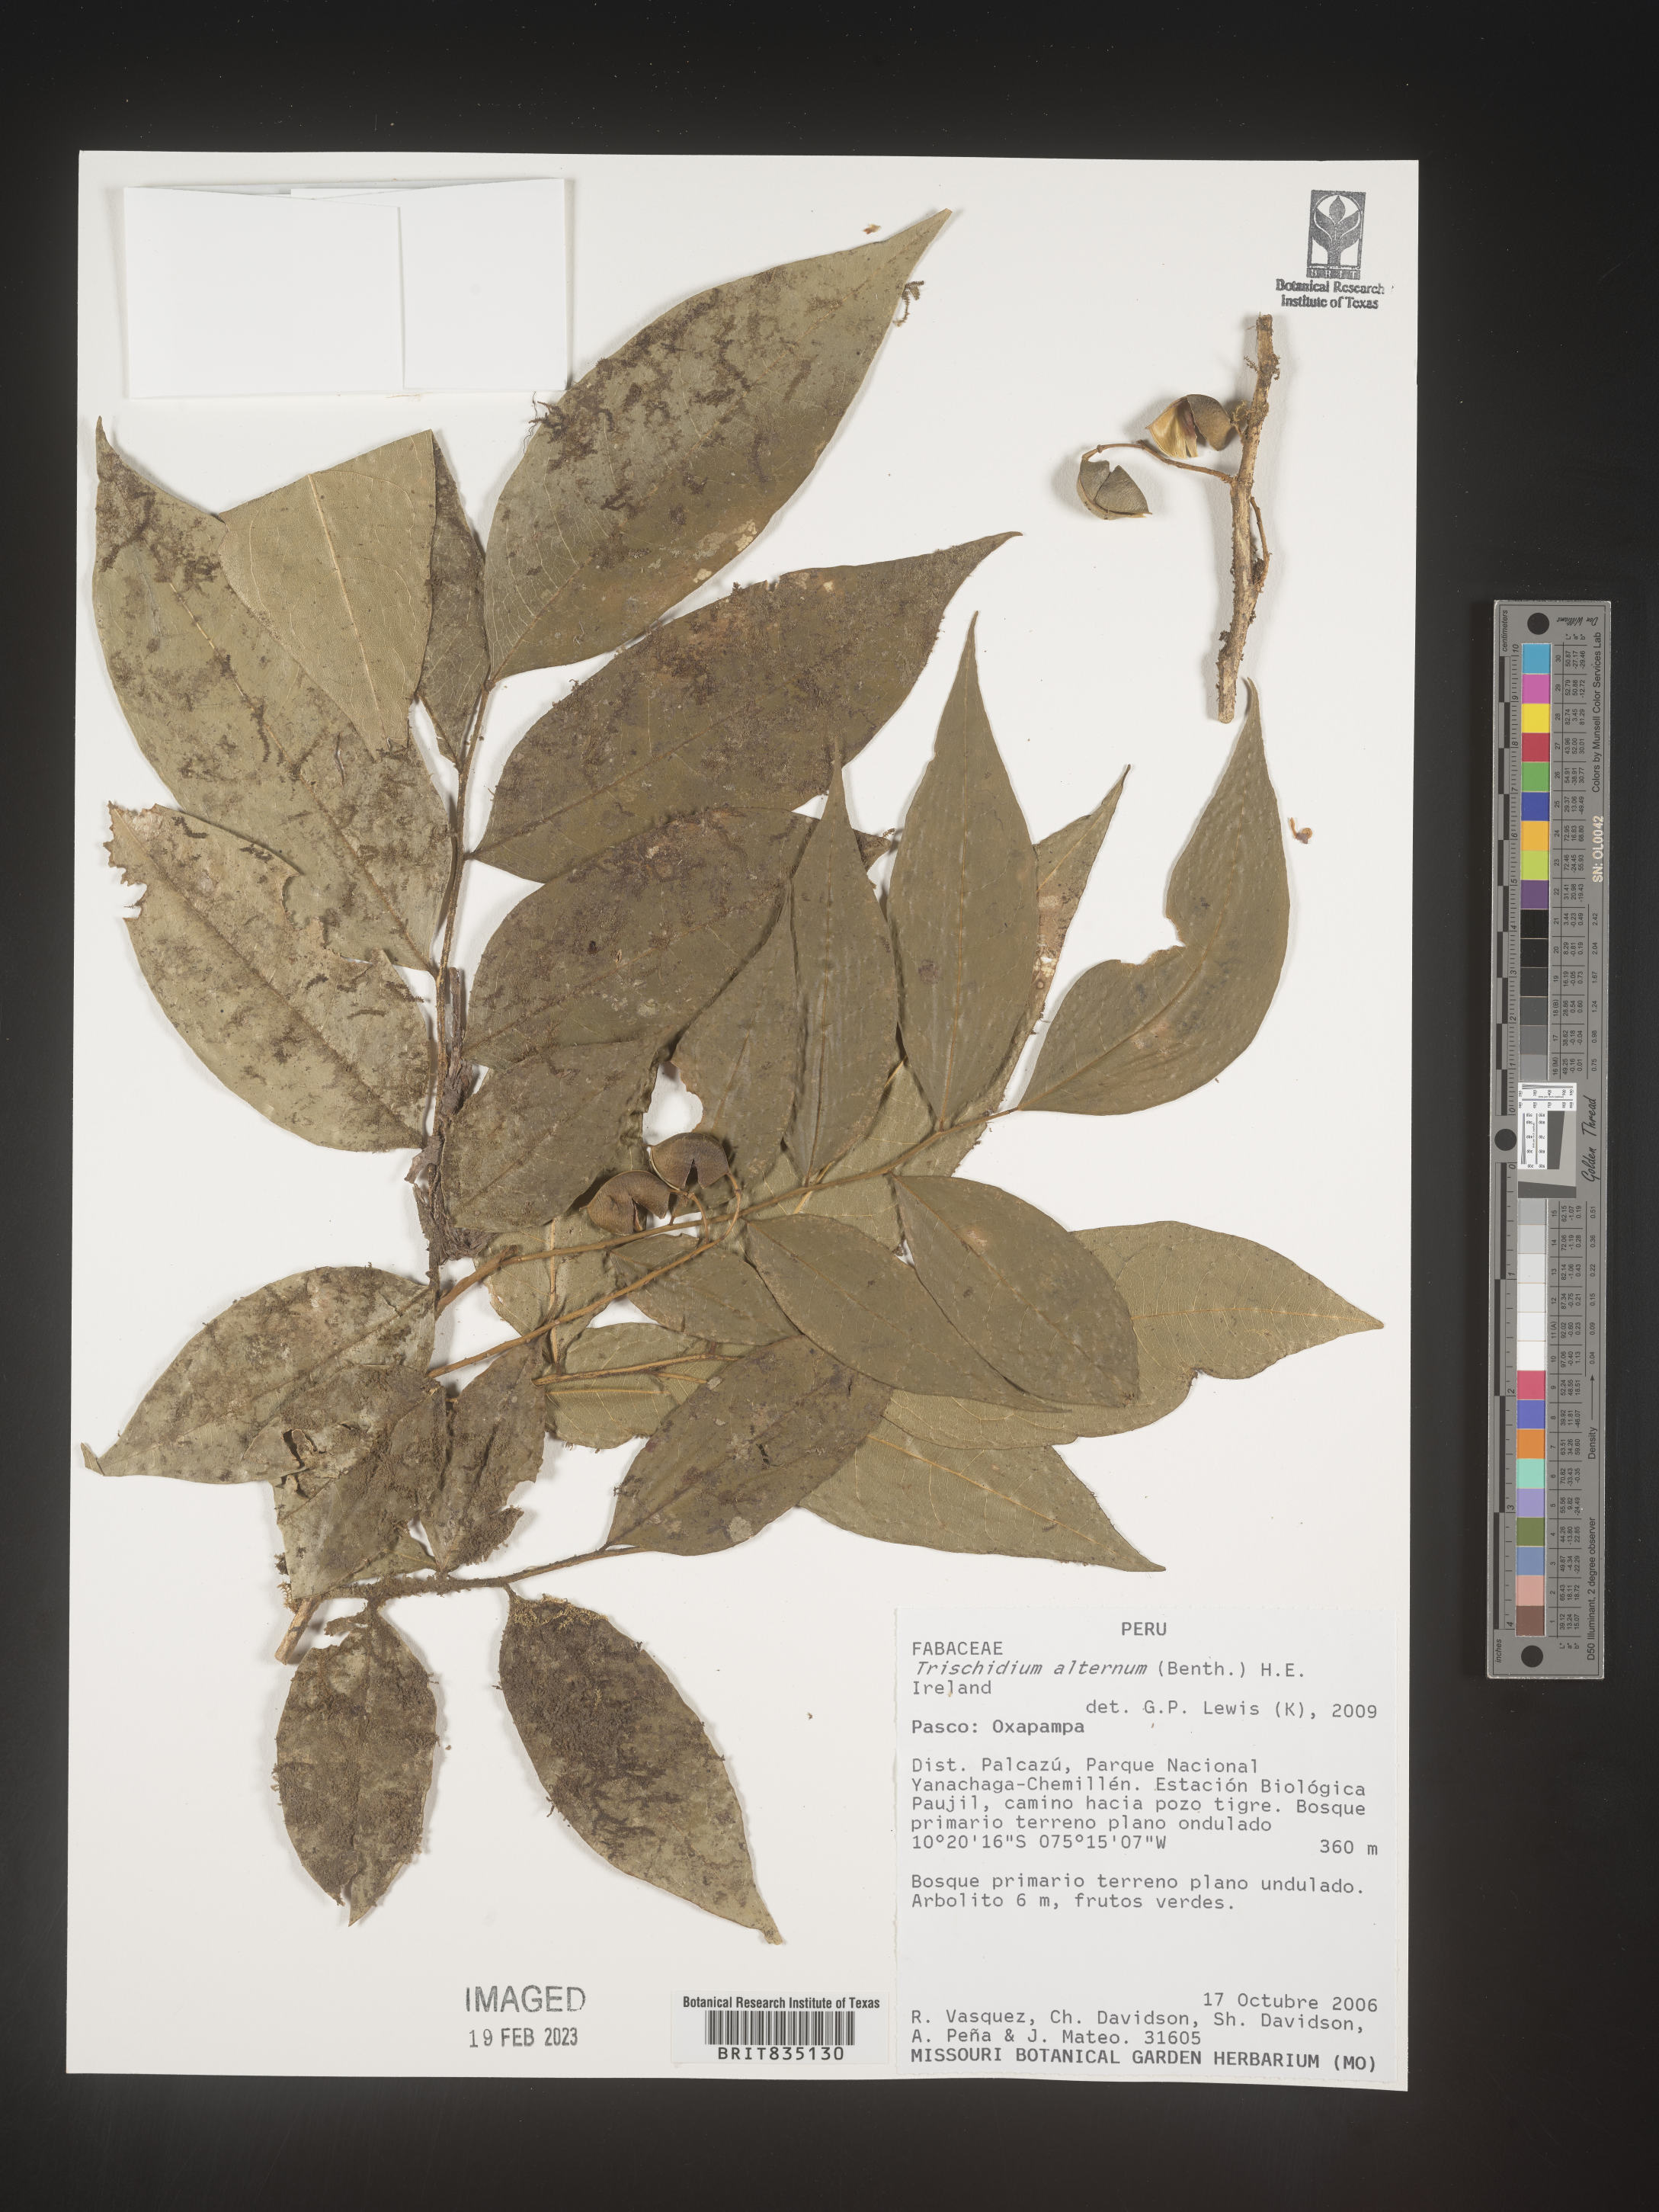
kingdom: Plantae
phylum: Tracheophyta
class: Magnoliopsida
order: Fabales
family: Fabaceae
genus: Trischidium
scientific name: Trischidium
